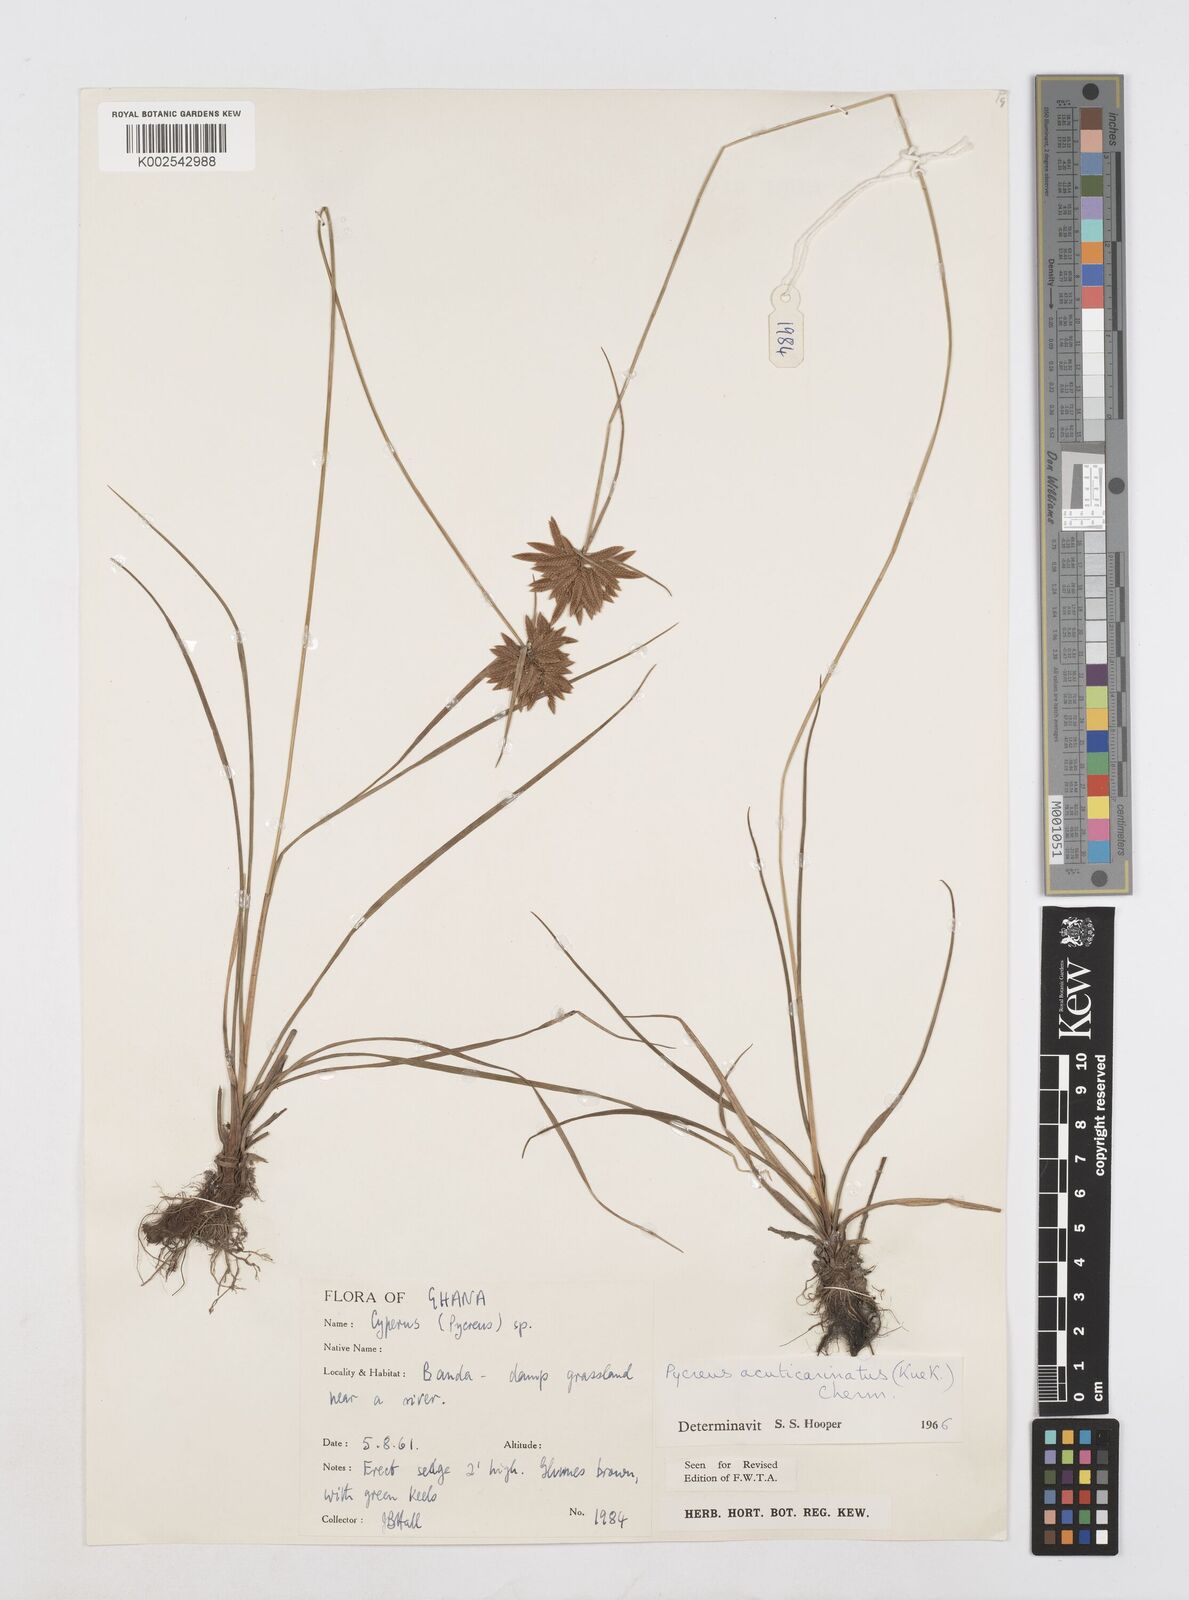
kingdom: Plantae
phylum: Tracheophyta
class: Liliopsida
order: Poales
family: Cyperaceae
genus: Cyperus
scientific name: Cyperus acuticarinatus
